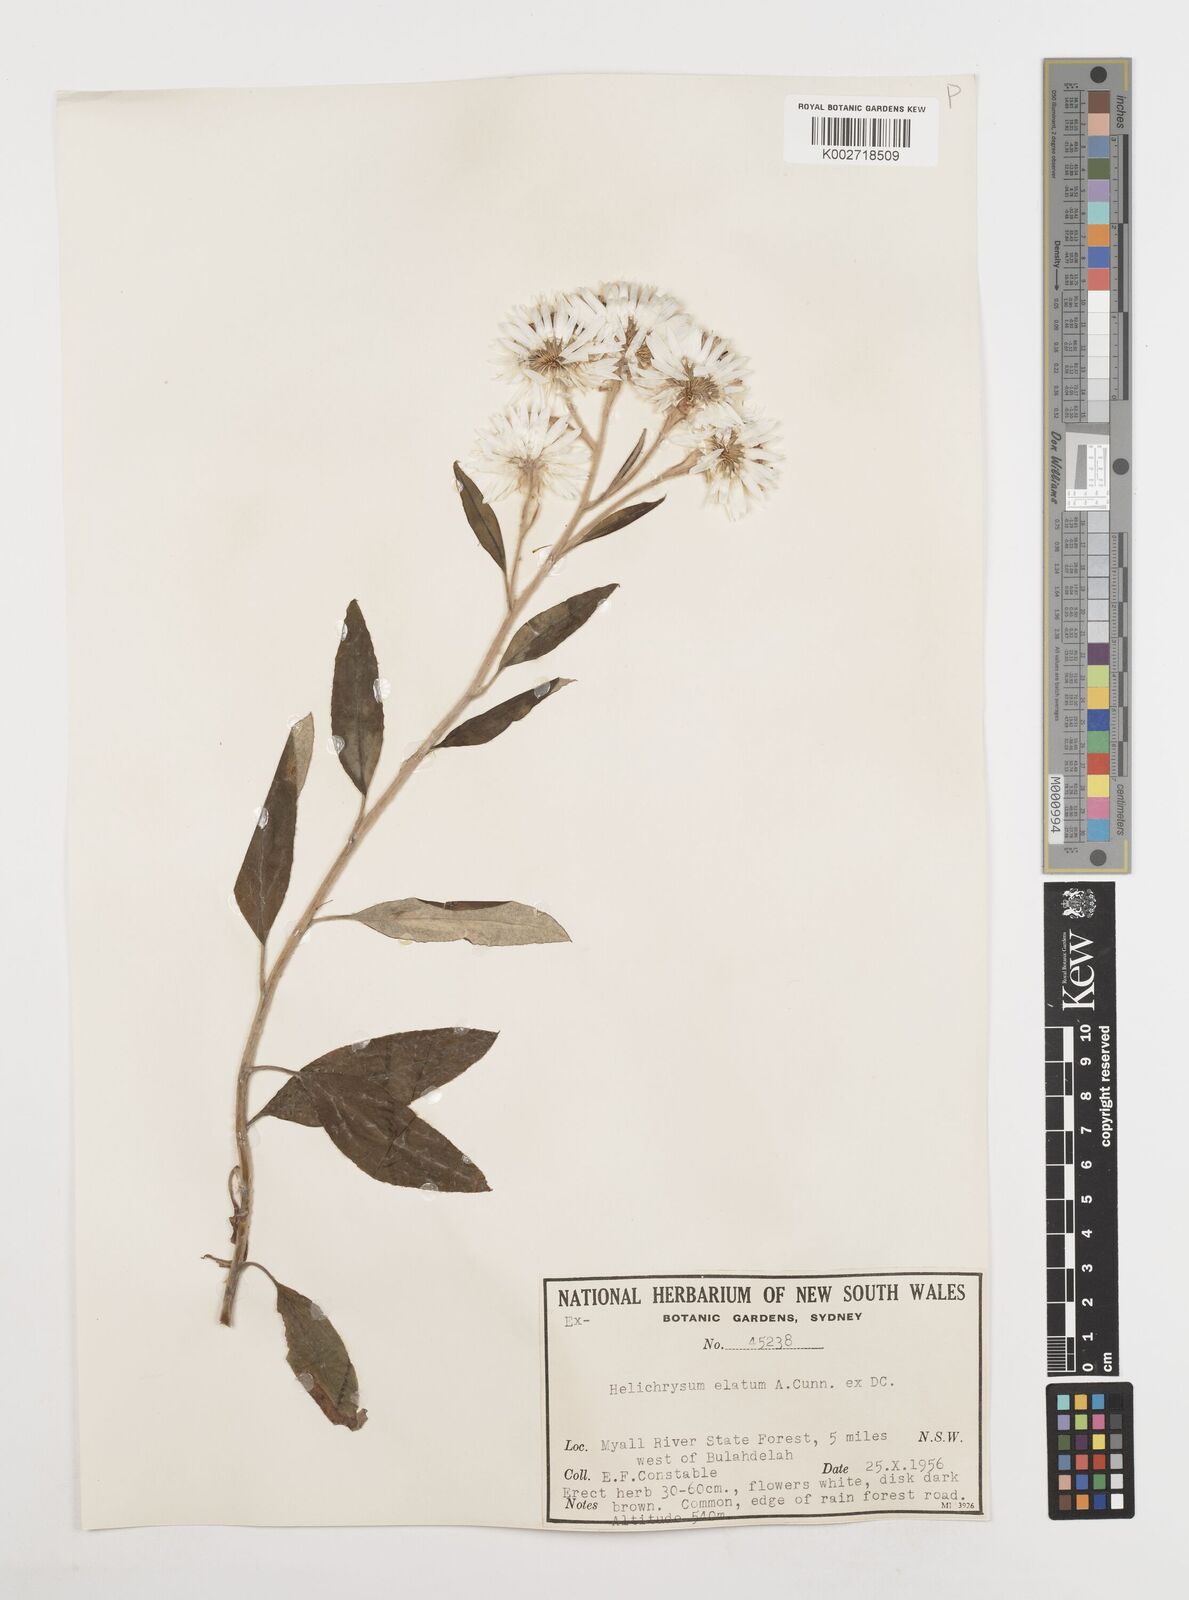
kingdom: Plantae
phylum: Tracheophyta
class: Magnoliopsida
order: Asterales
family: Asteraceae
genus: Leucozoma
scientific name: Leucozoma elatum
